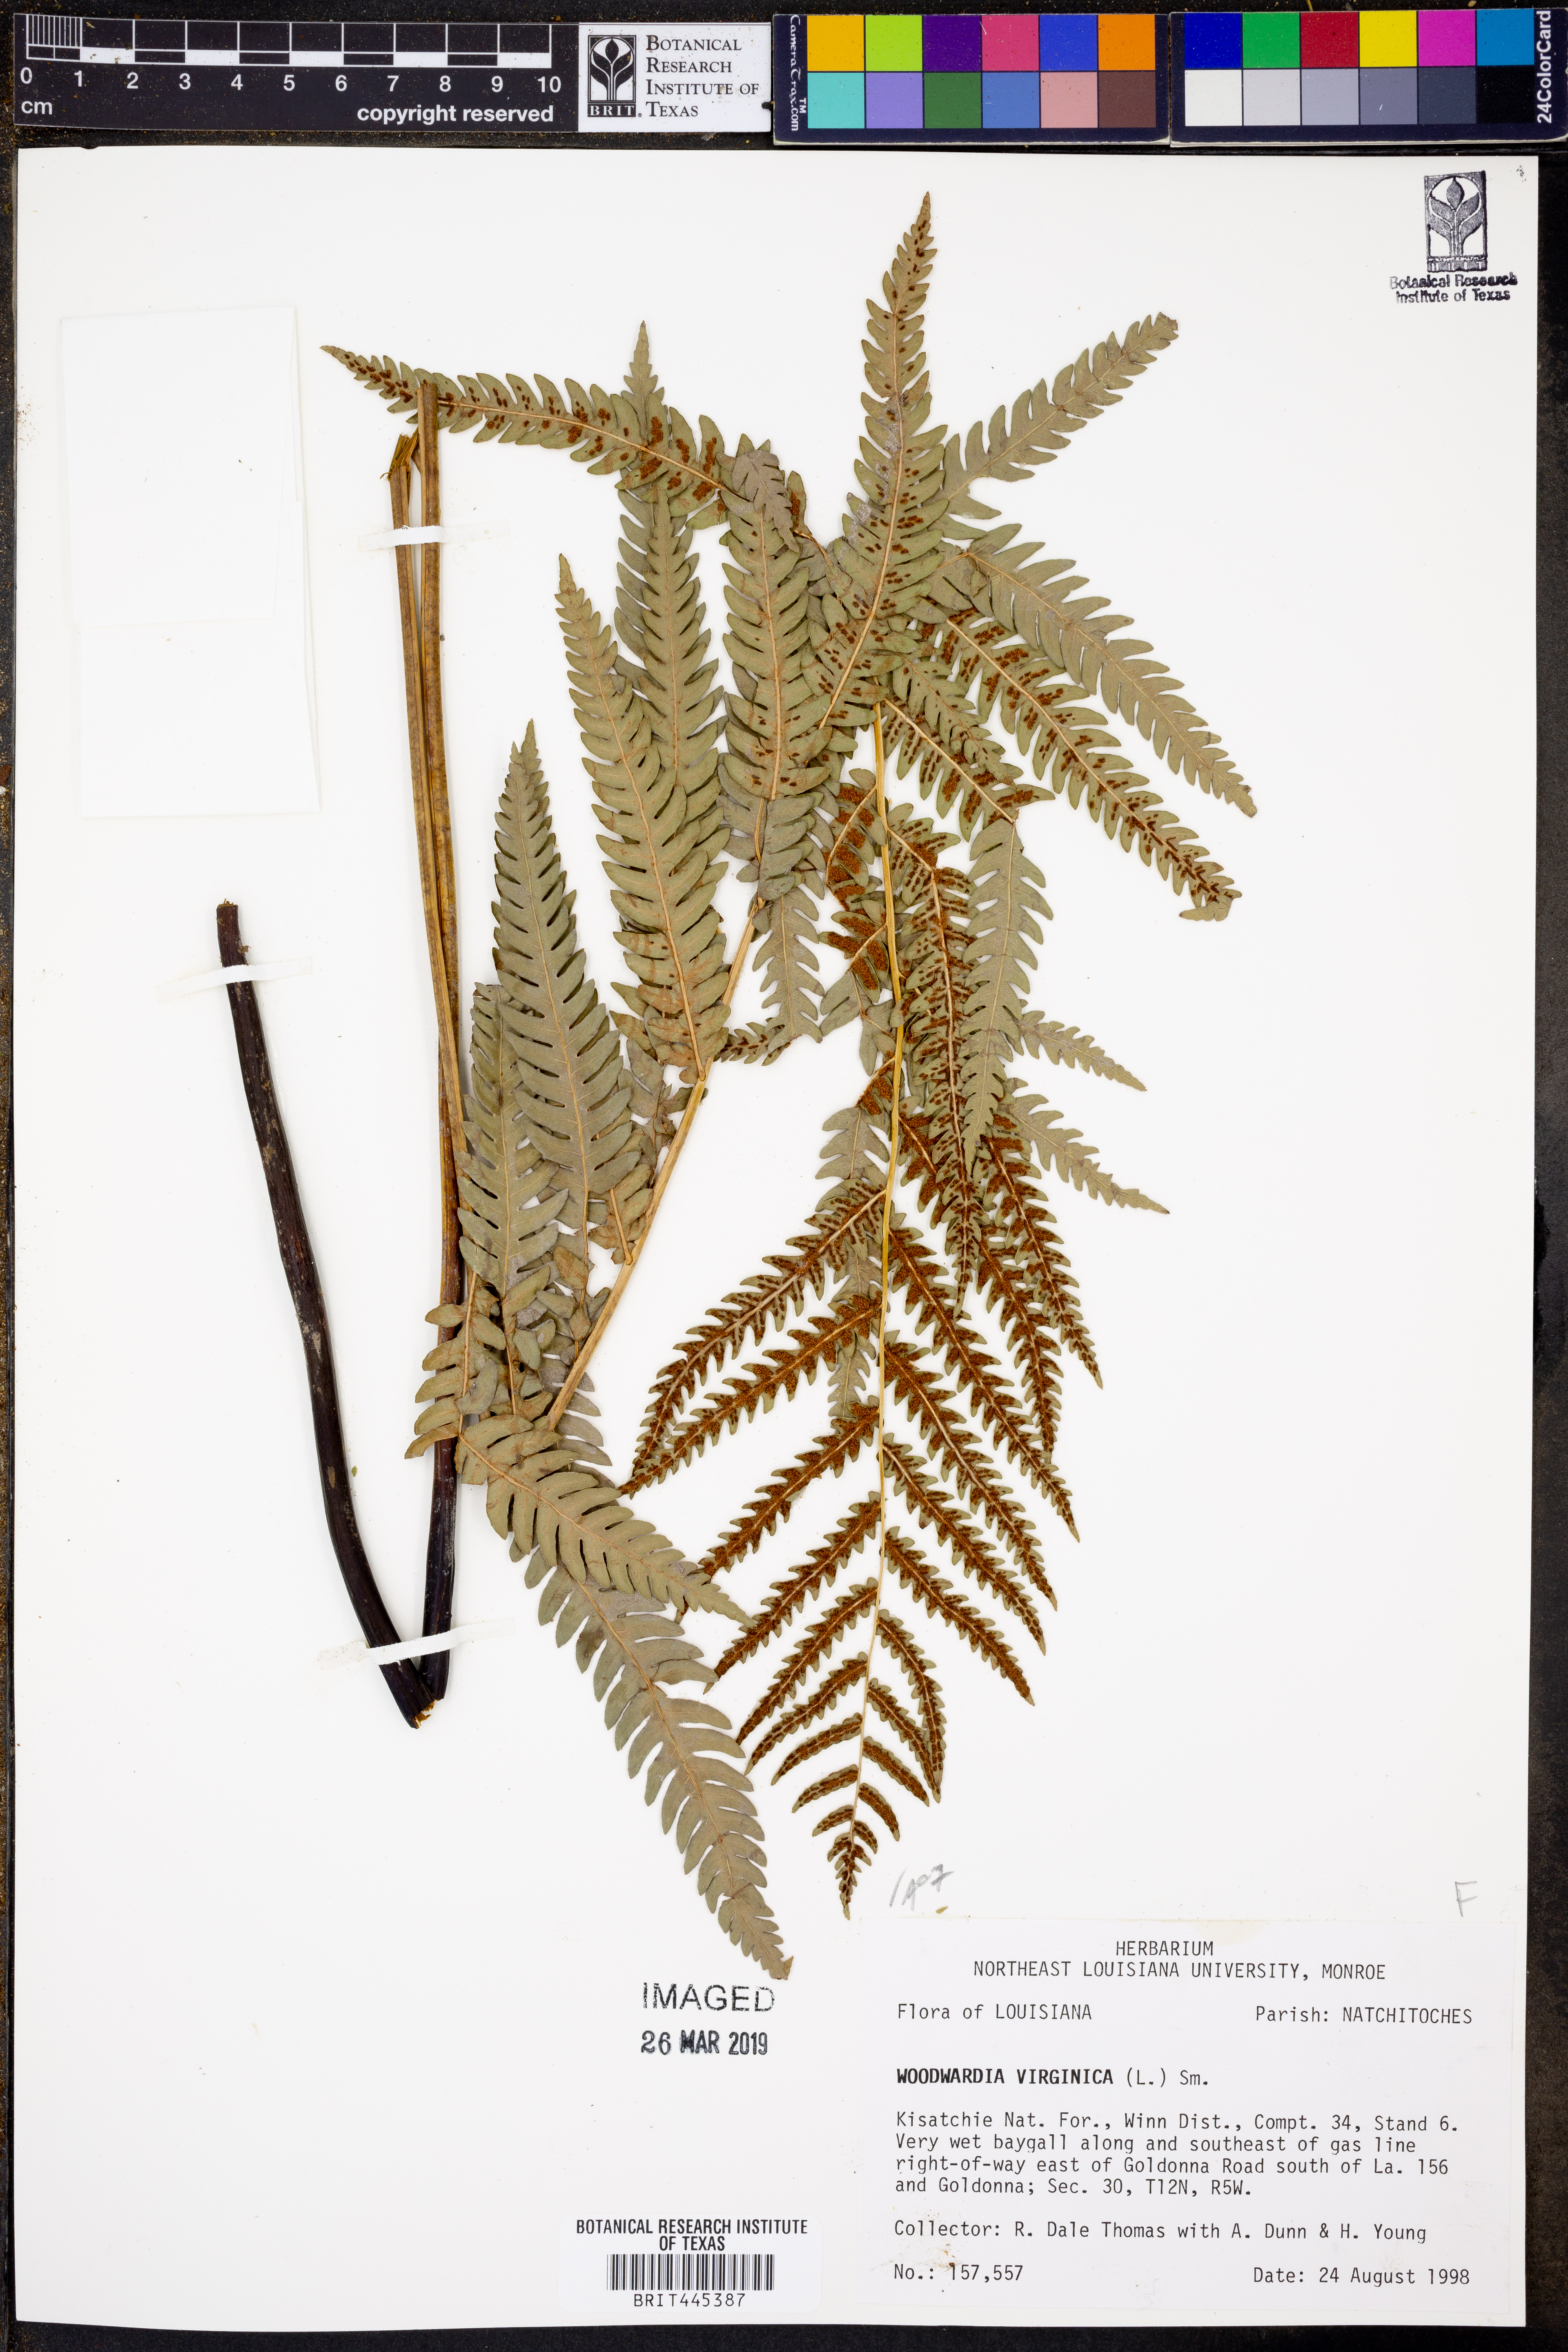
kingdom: Plantae
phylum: Tracheophyta
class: Polypodiopsida
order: Polypodiales
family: Blechnaceae
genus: Anchistea
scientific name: Anchistea virginica
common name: Virginia chain fern
